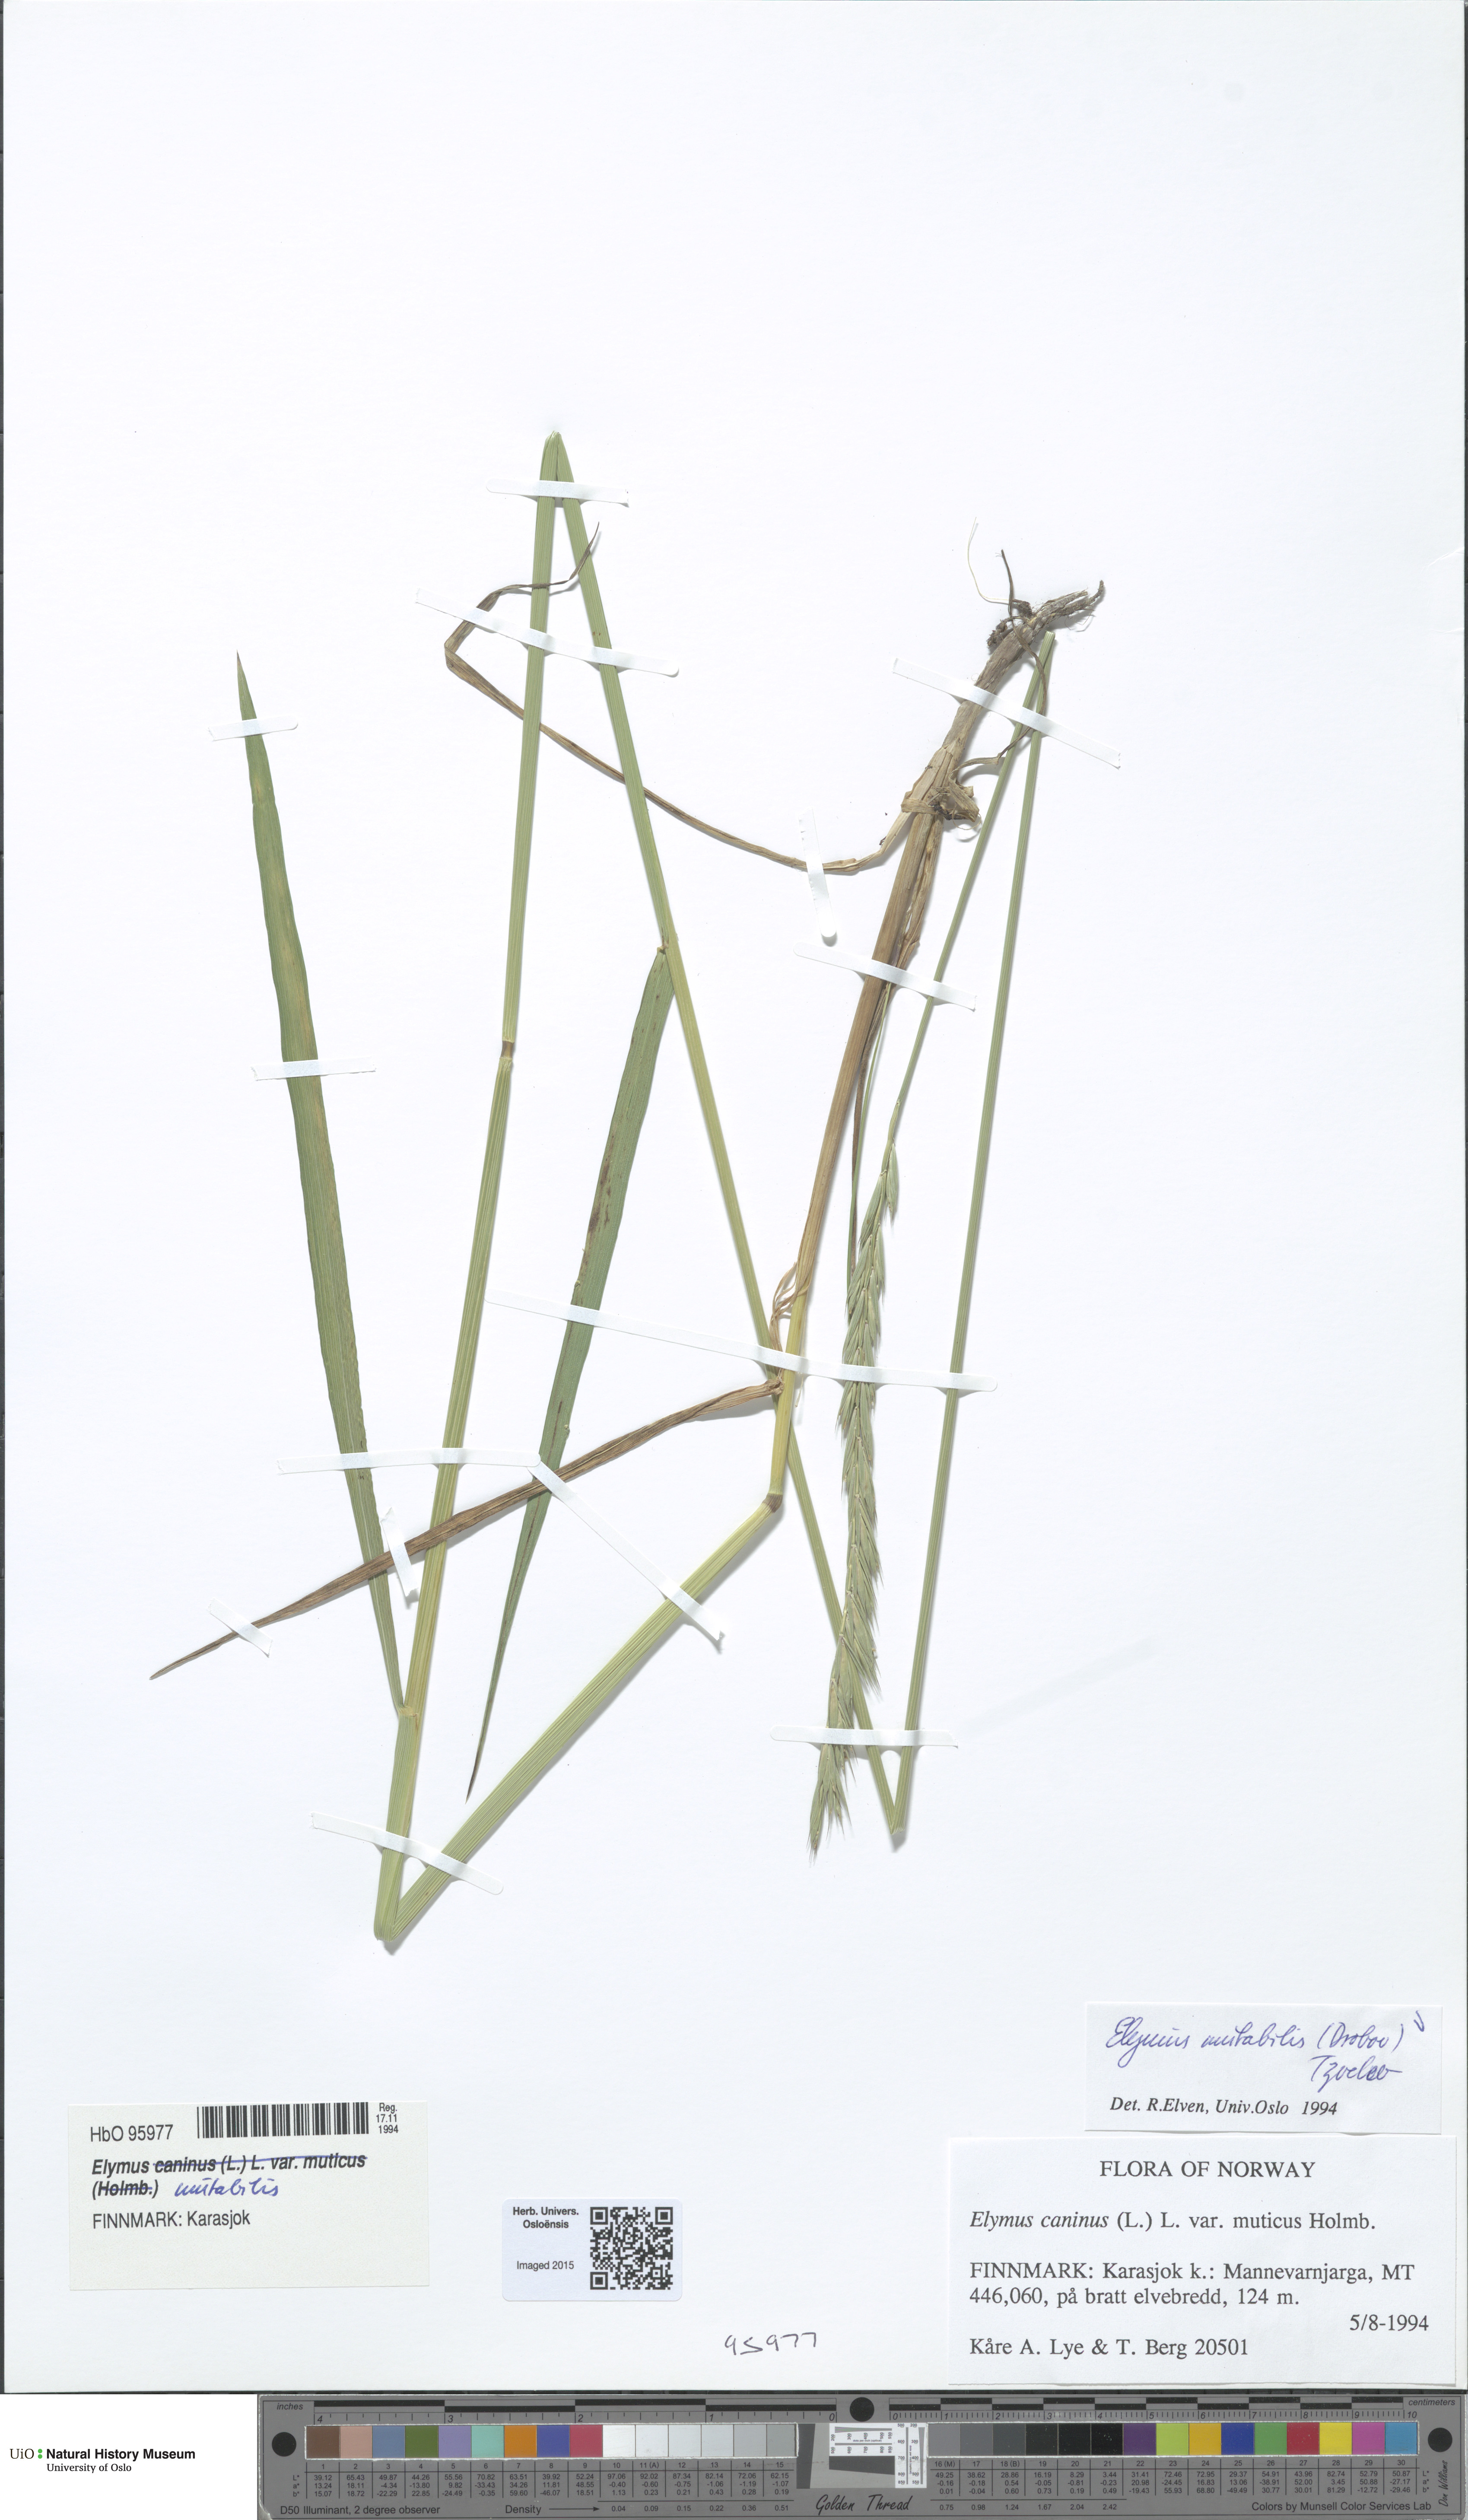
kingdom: Plantae
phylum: Tracheophyta
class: Liliopsida
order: Poales
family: Poaceae
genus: Elymus
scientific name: Elymus mutabilis
